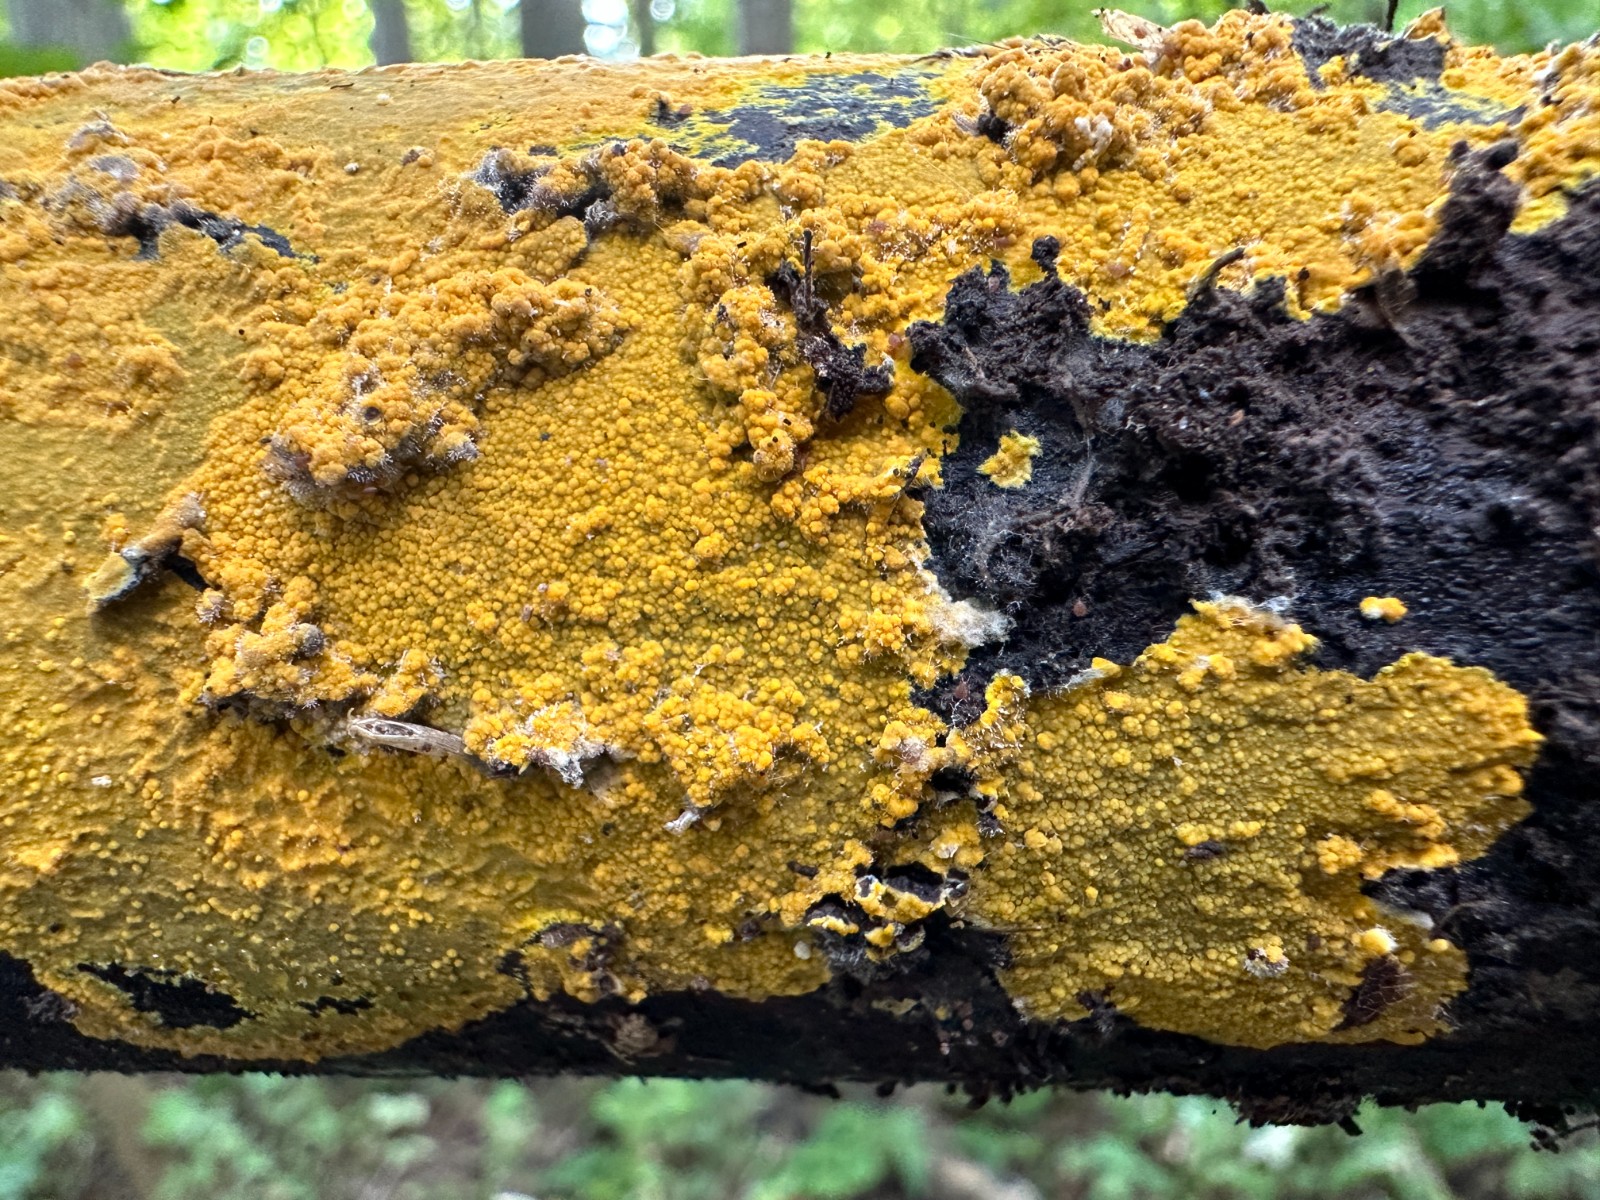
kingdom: Fungi
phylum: Basidiomycota
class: Agaricomycetes
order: Polyporales
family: Meruliaceae
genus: Phlebiodontia
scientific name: Phlebiodontia subochracea
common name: svovl-åresvamp
